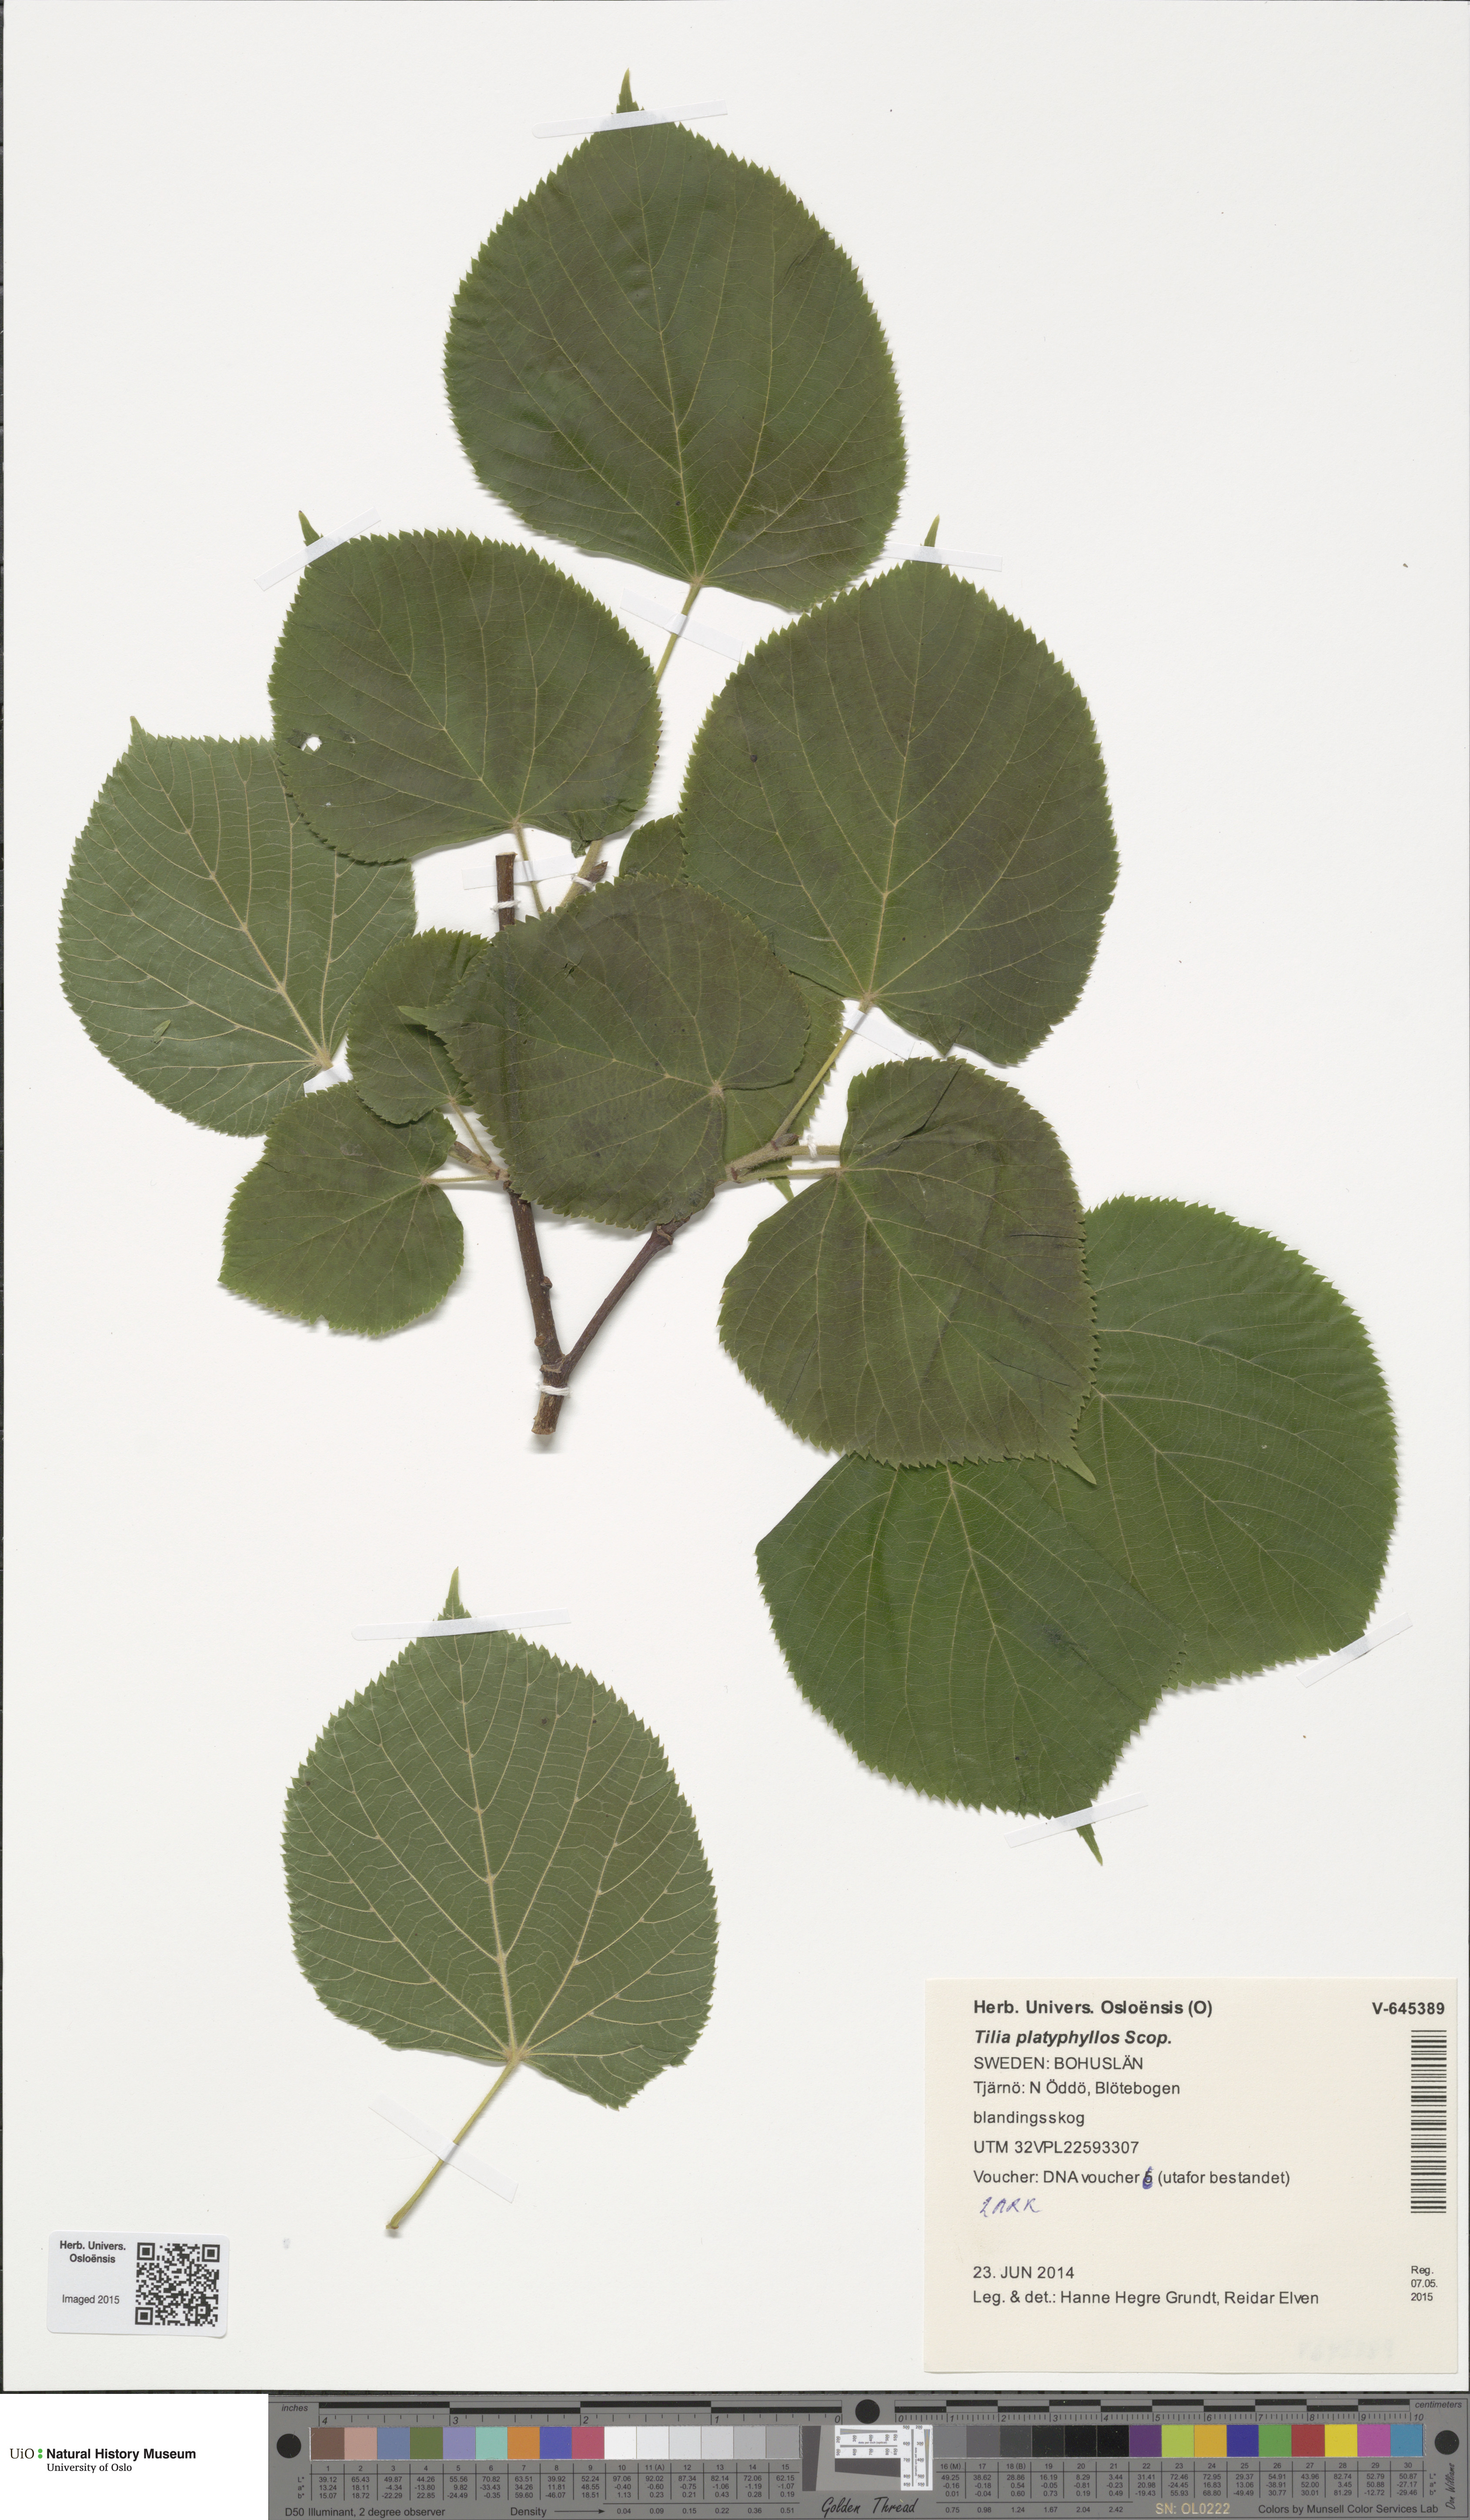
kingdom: Plantae
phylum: Tracheophyta
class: Magnoliopsida
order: Malvales
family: Malvaceae
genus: Tilia
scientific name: Tilia platyphyllos
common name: Large-leaved lime
